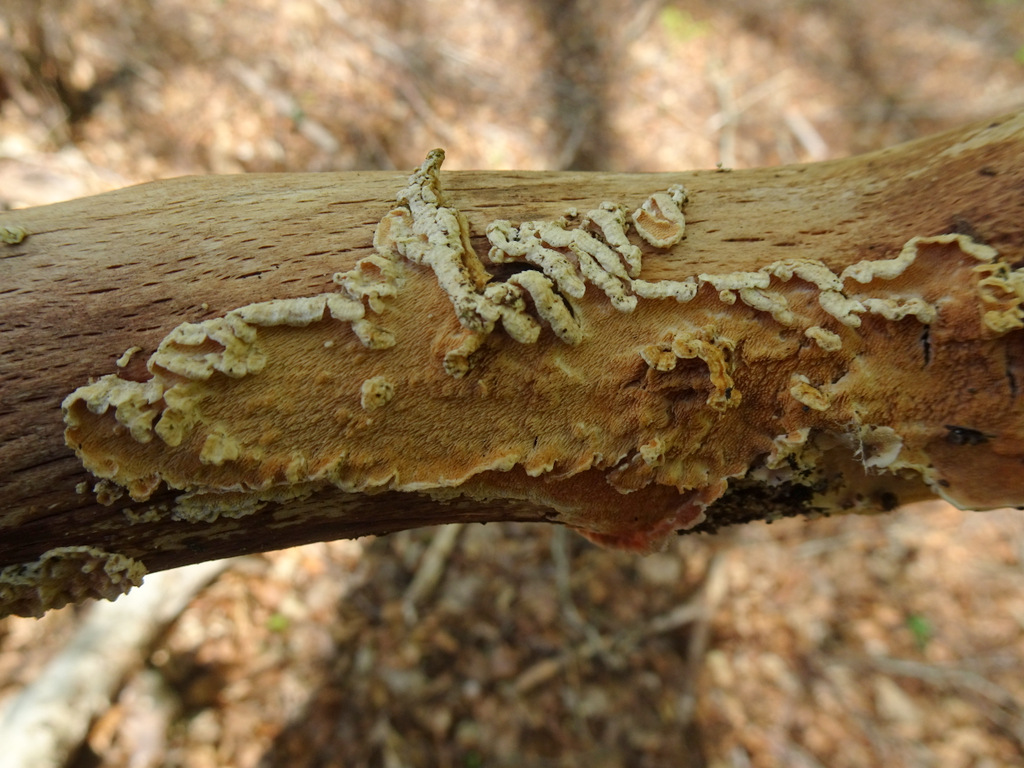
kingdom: Fungi
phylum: Basidiomycota
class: Agaricomycetes
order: Polyporales
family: Steccherinaceae
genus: Steccherinum
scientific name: Steccherinum ochraceum
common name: almindelig skønpig
